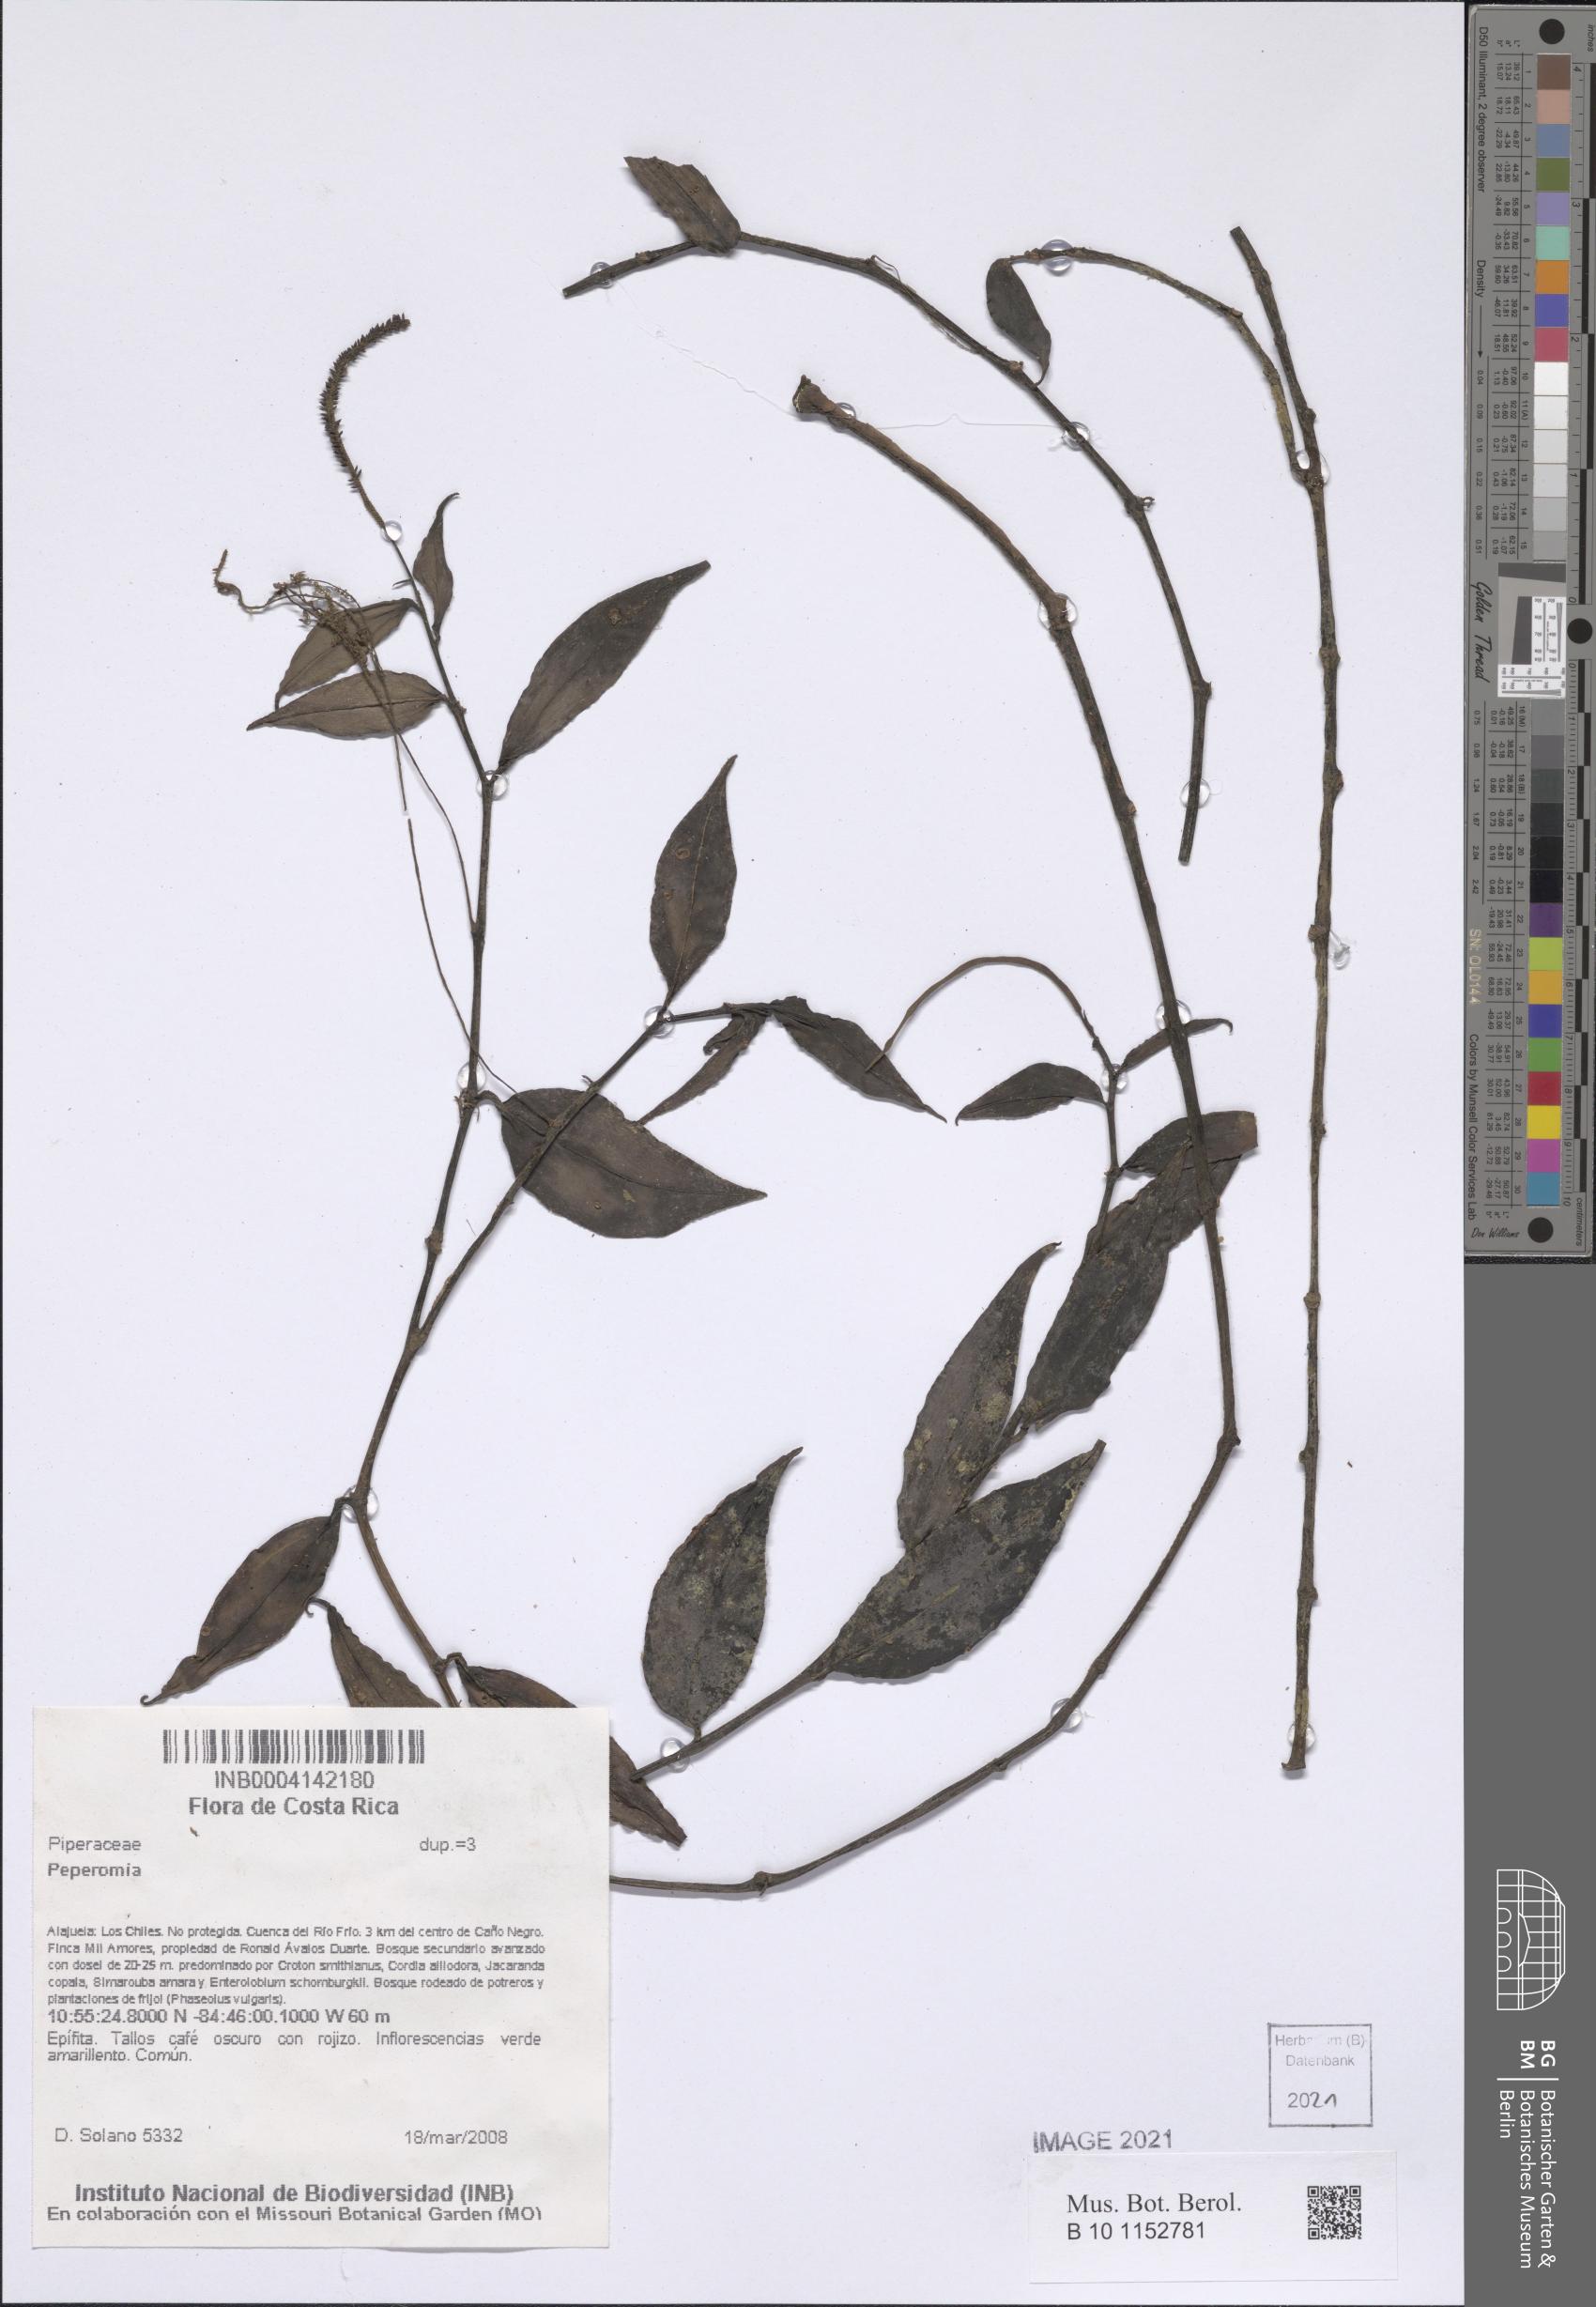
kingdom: Plantae
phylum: Tracheophyta
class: Magnoliopsida
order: Piperales
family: Piperaceae
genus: Peperomia
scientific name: Peperomia
